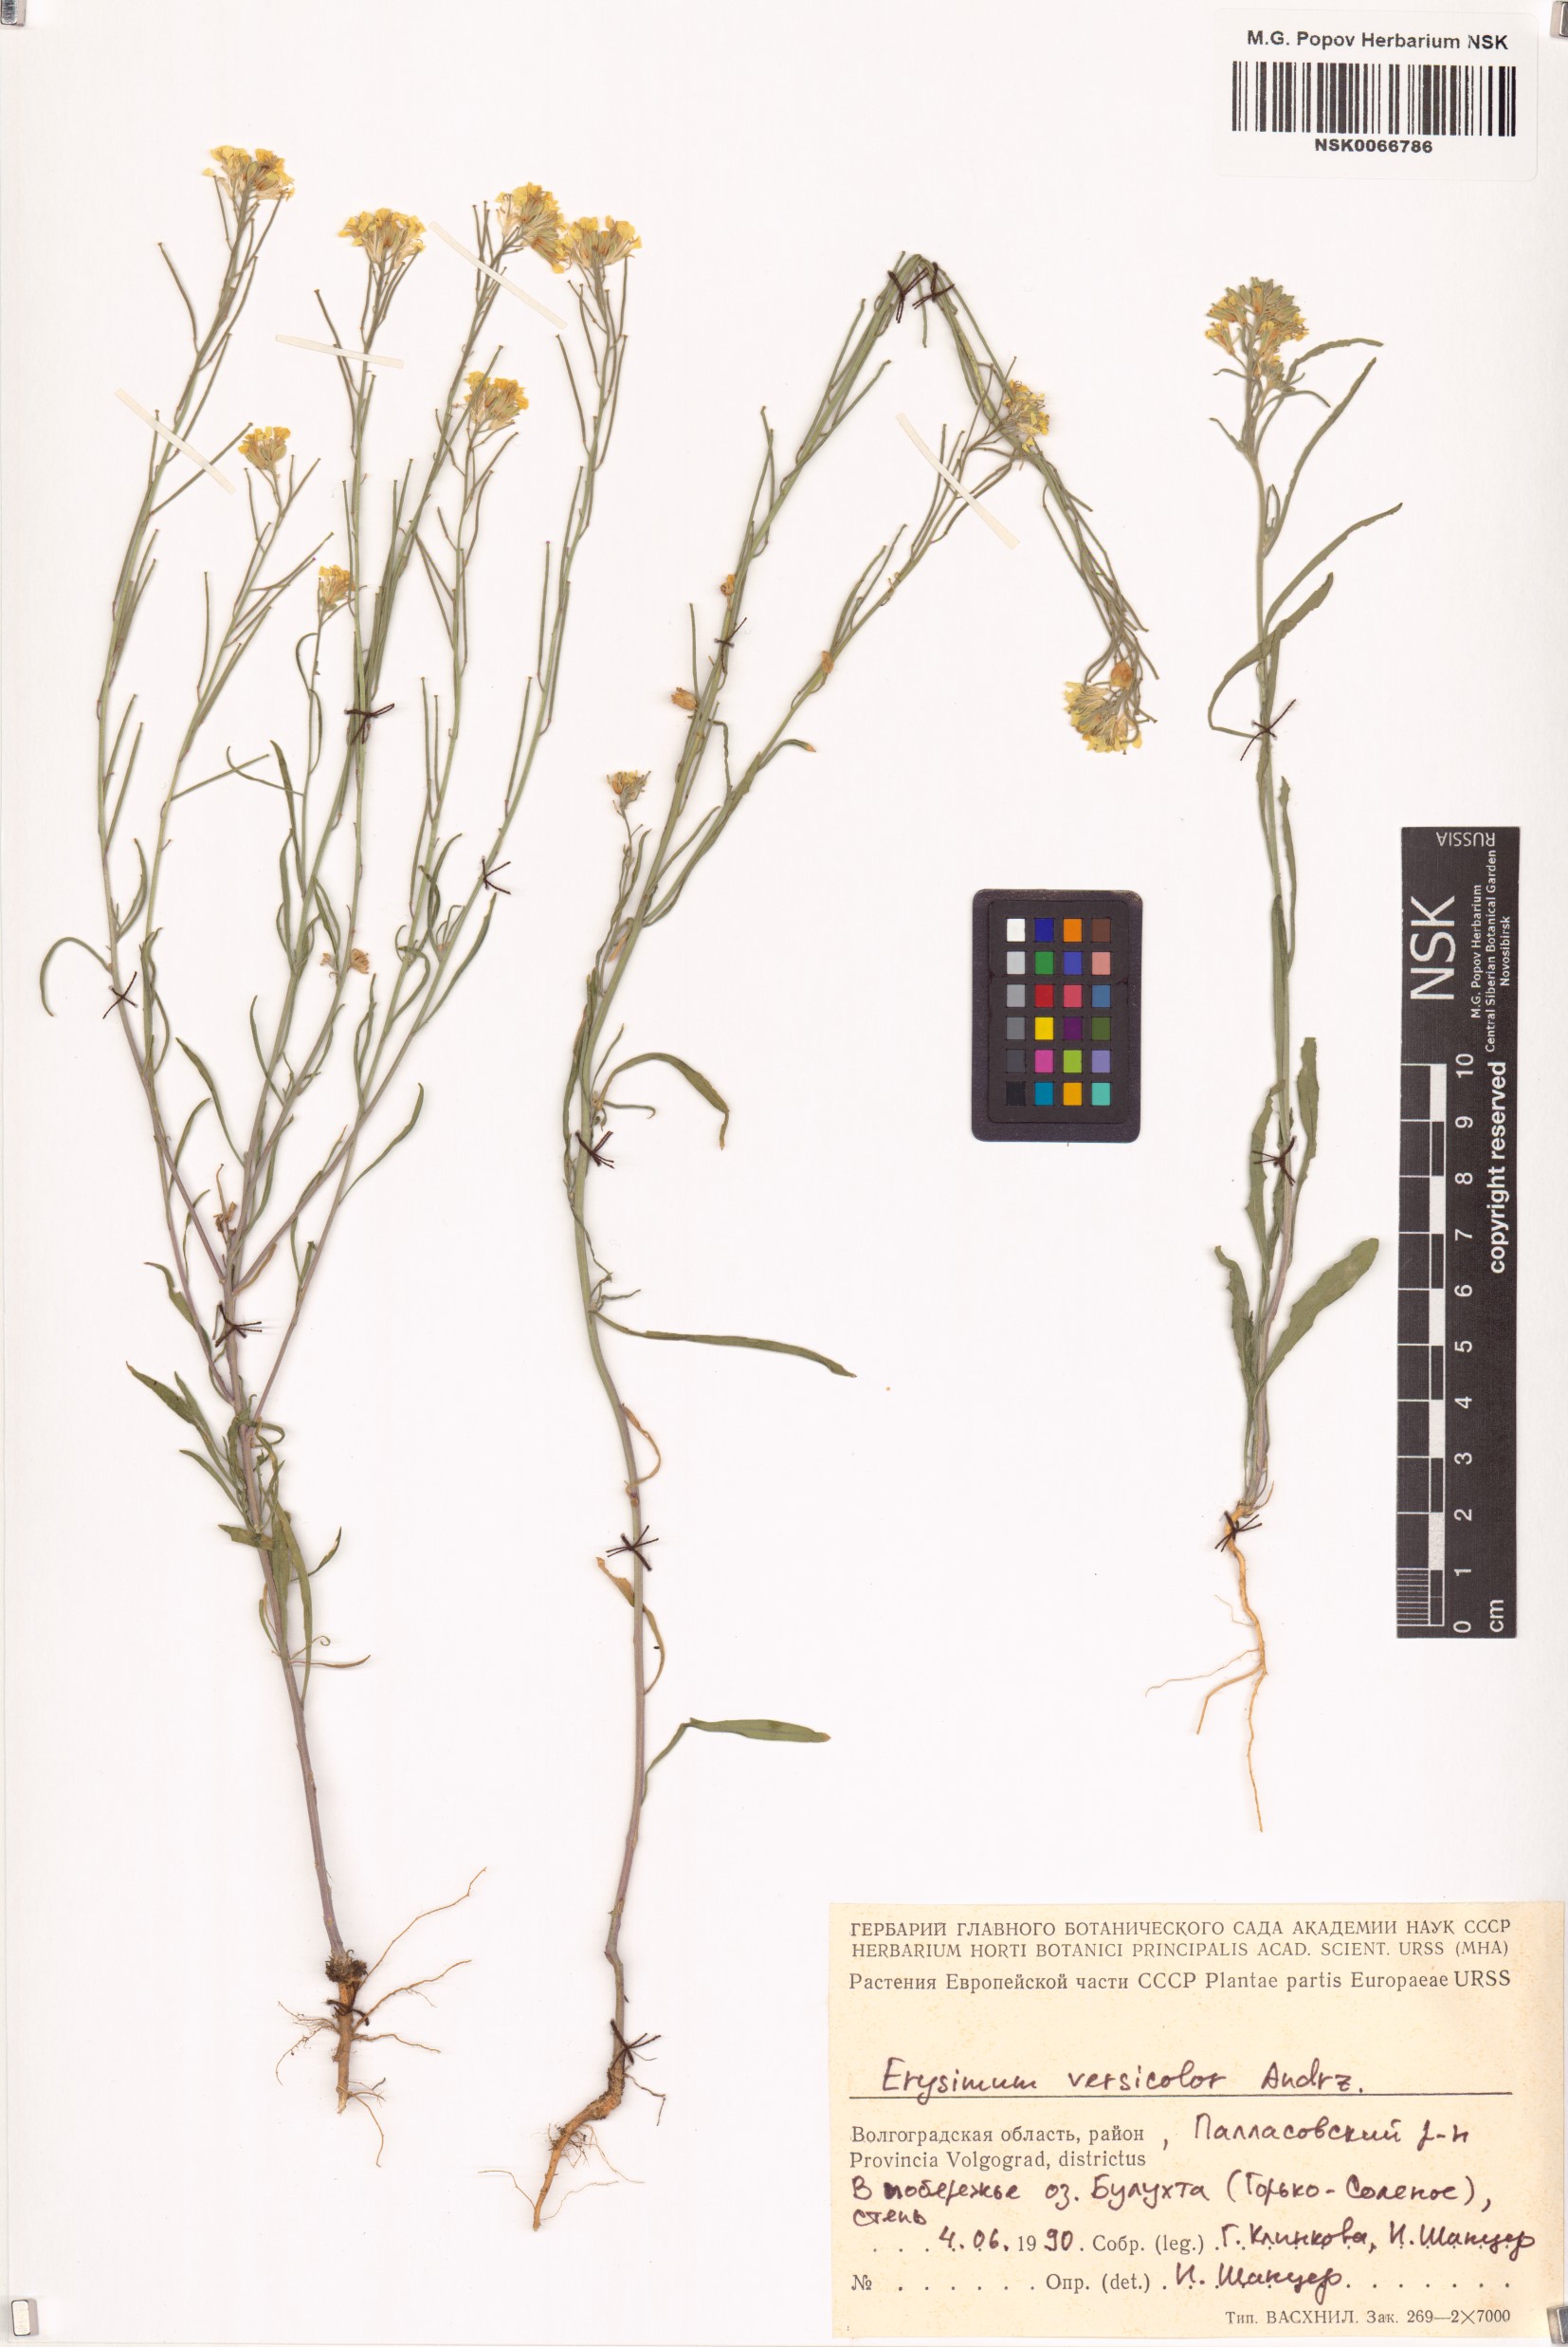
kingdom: Plantae
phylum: Tracheophyta
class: Magnoliopsida
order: Brassicales
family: Brassicaceae
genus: Erysimum
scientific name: Erysimum leucanthemum
